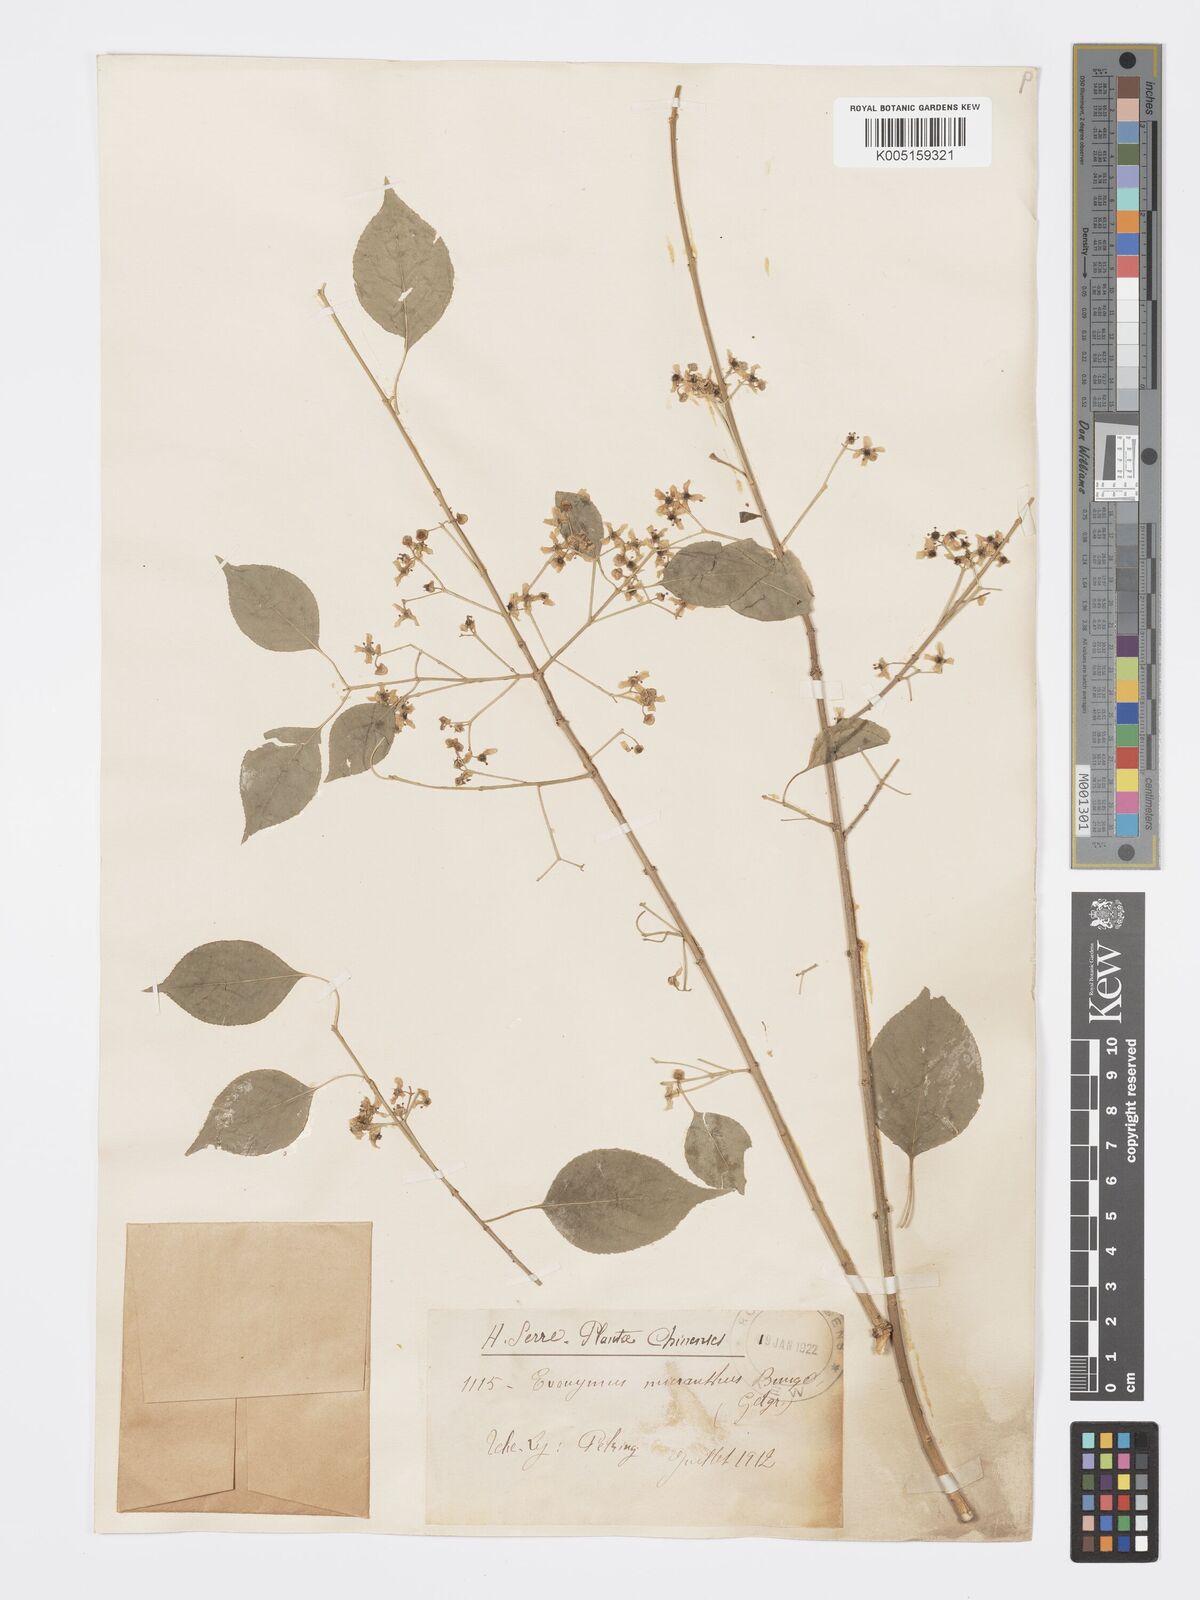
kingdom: Plantae
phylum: Tracheophyta
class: Magnoliopsida
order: Celastrales
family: Celastraceae
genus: Euonymus
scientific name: Euonymus maackii
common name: Hamilton's spindletree
